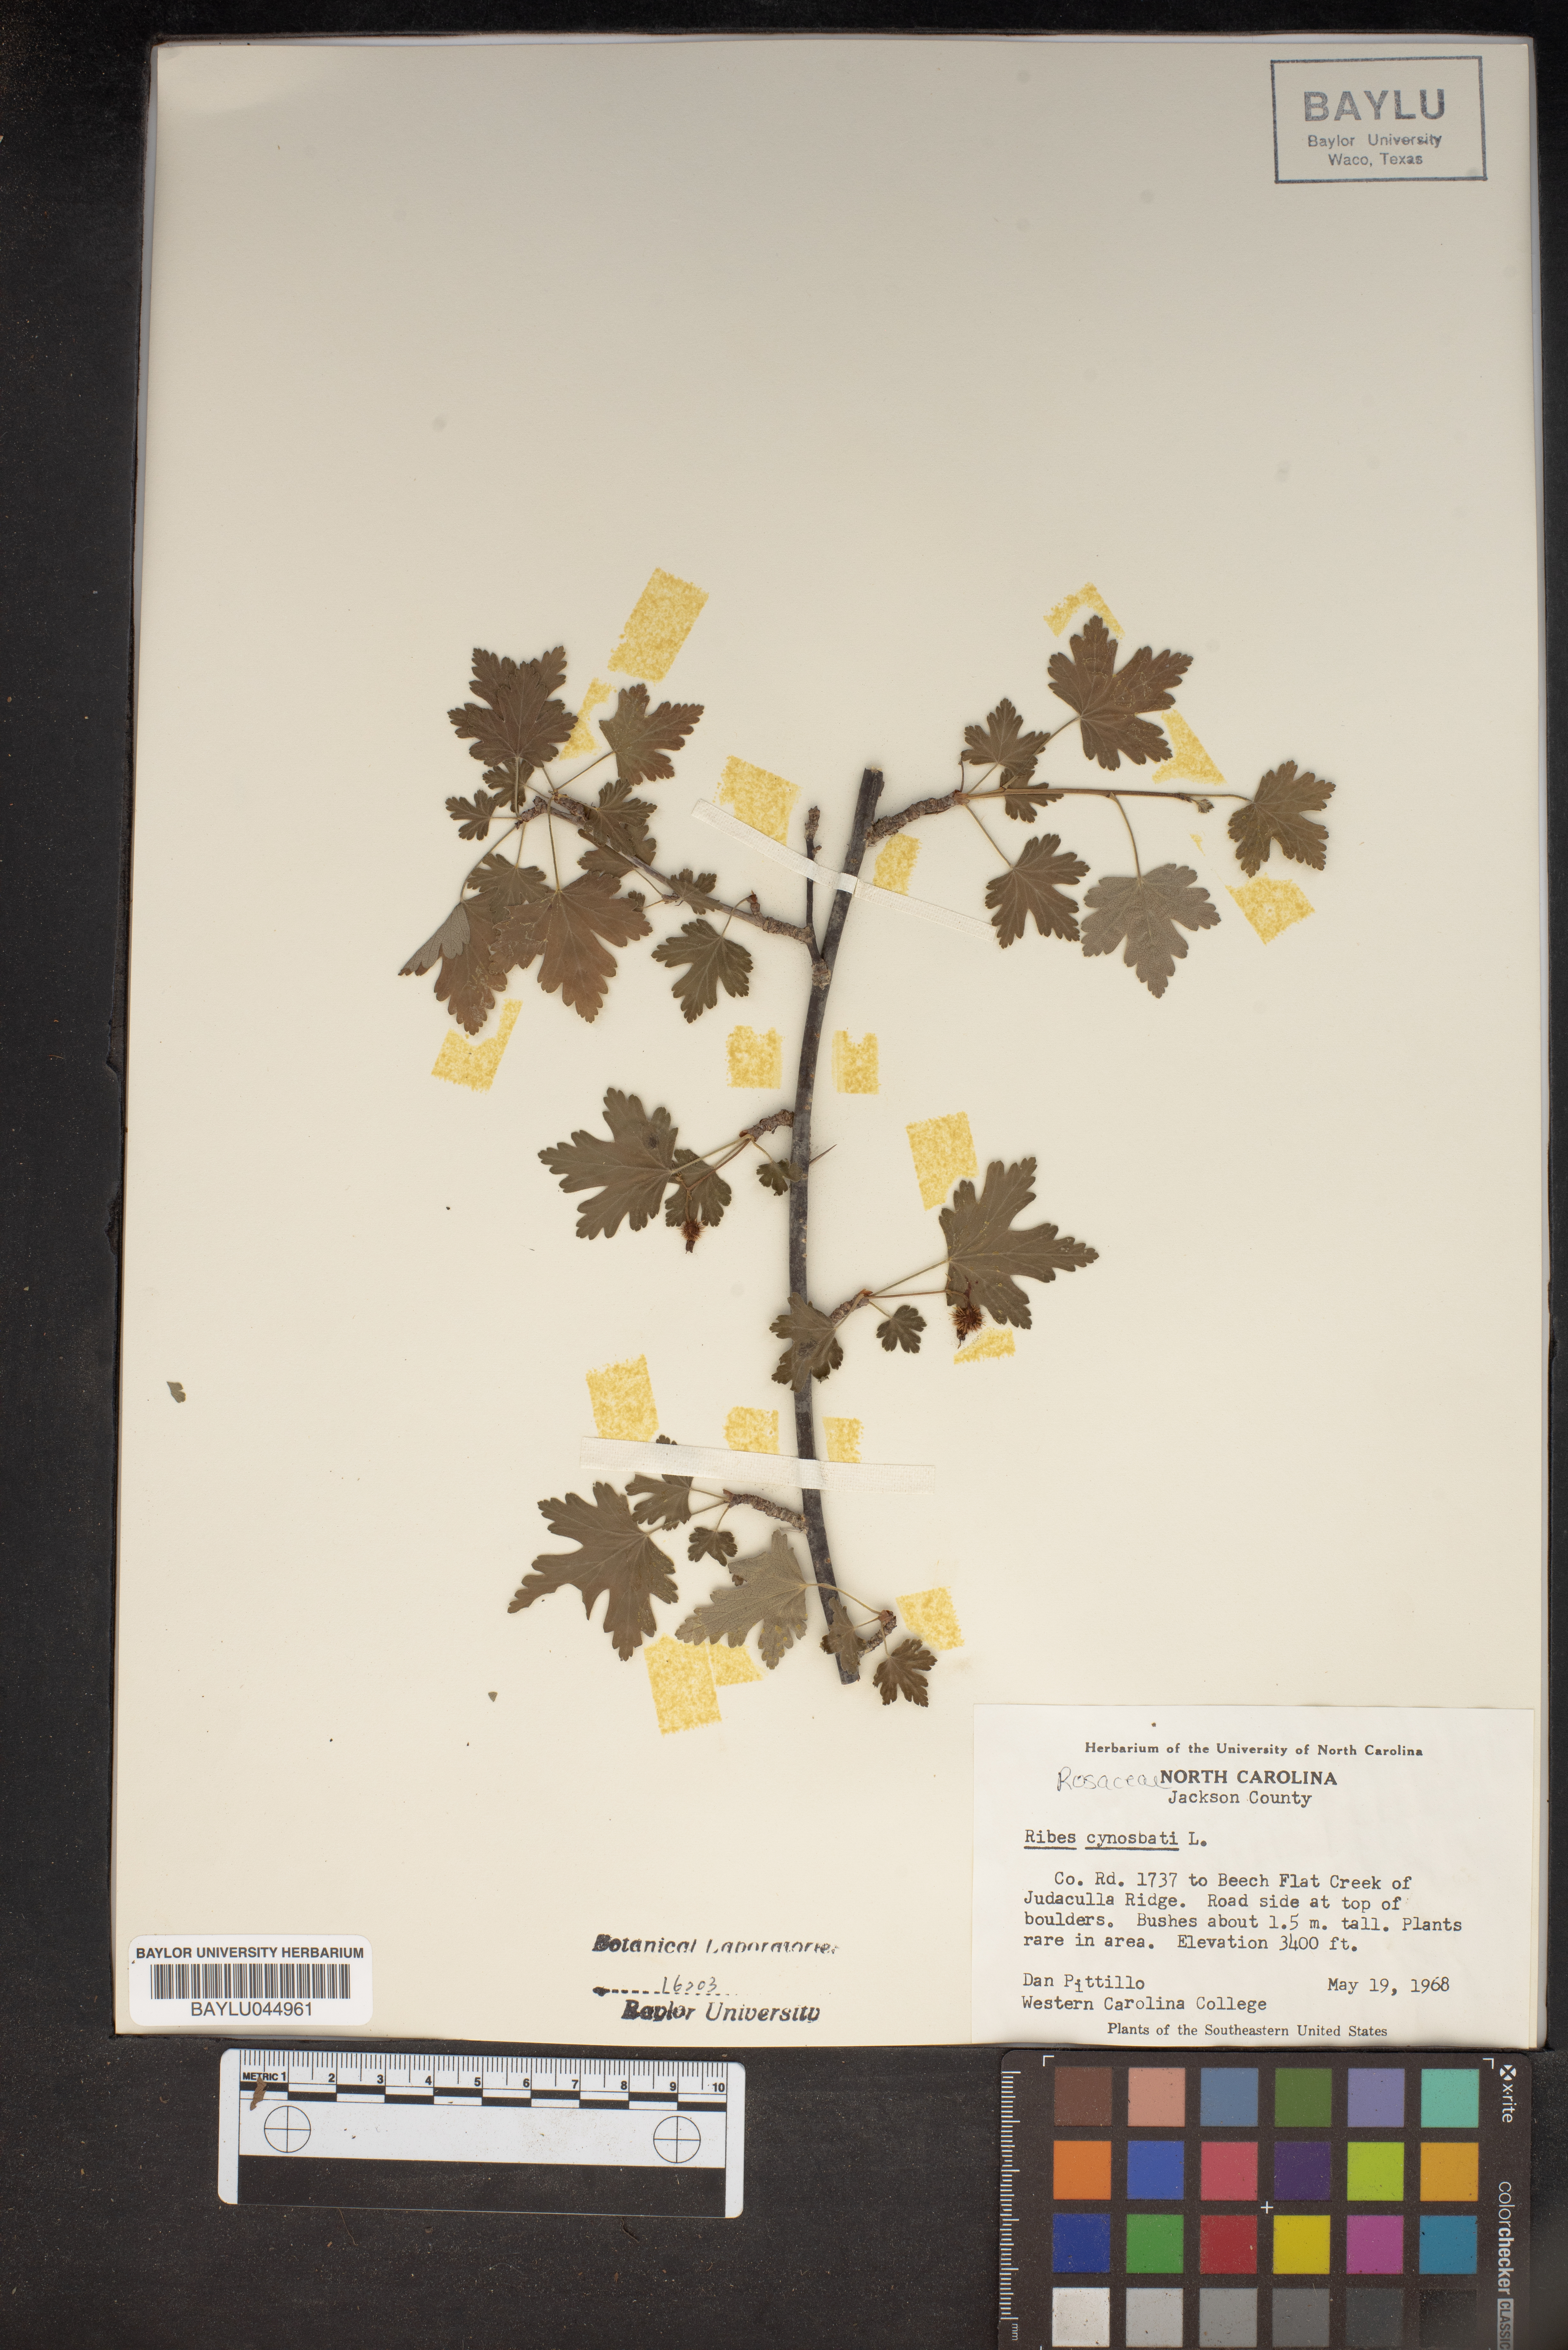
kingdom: Plantae
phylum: Tracheophyta
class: Magnoliopsida
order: Saxifragales
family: Grossulariaceae
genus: Ribes
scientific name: Ribes cynosbati
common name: American gooseberry
